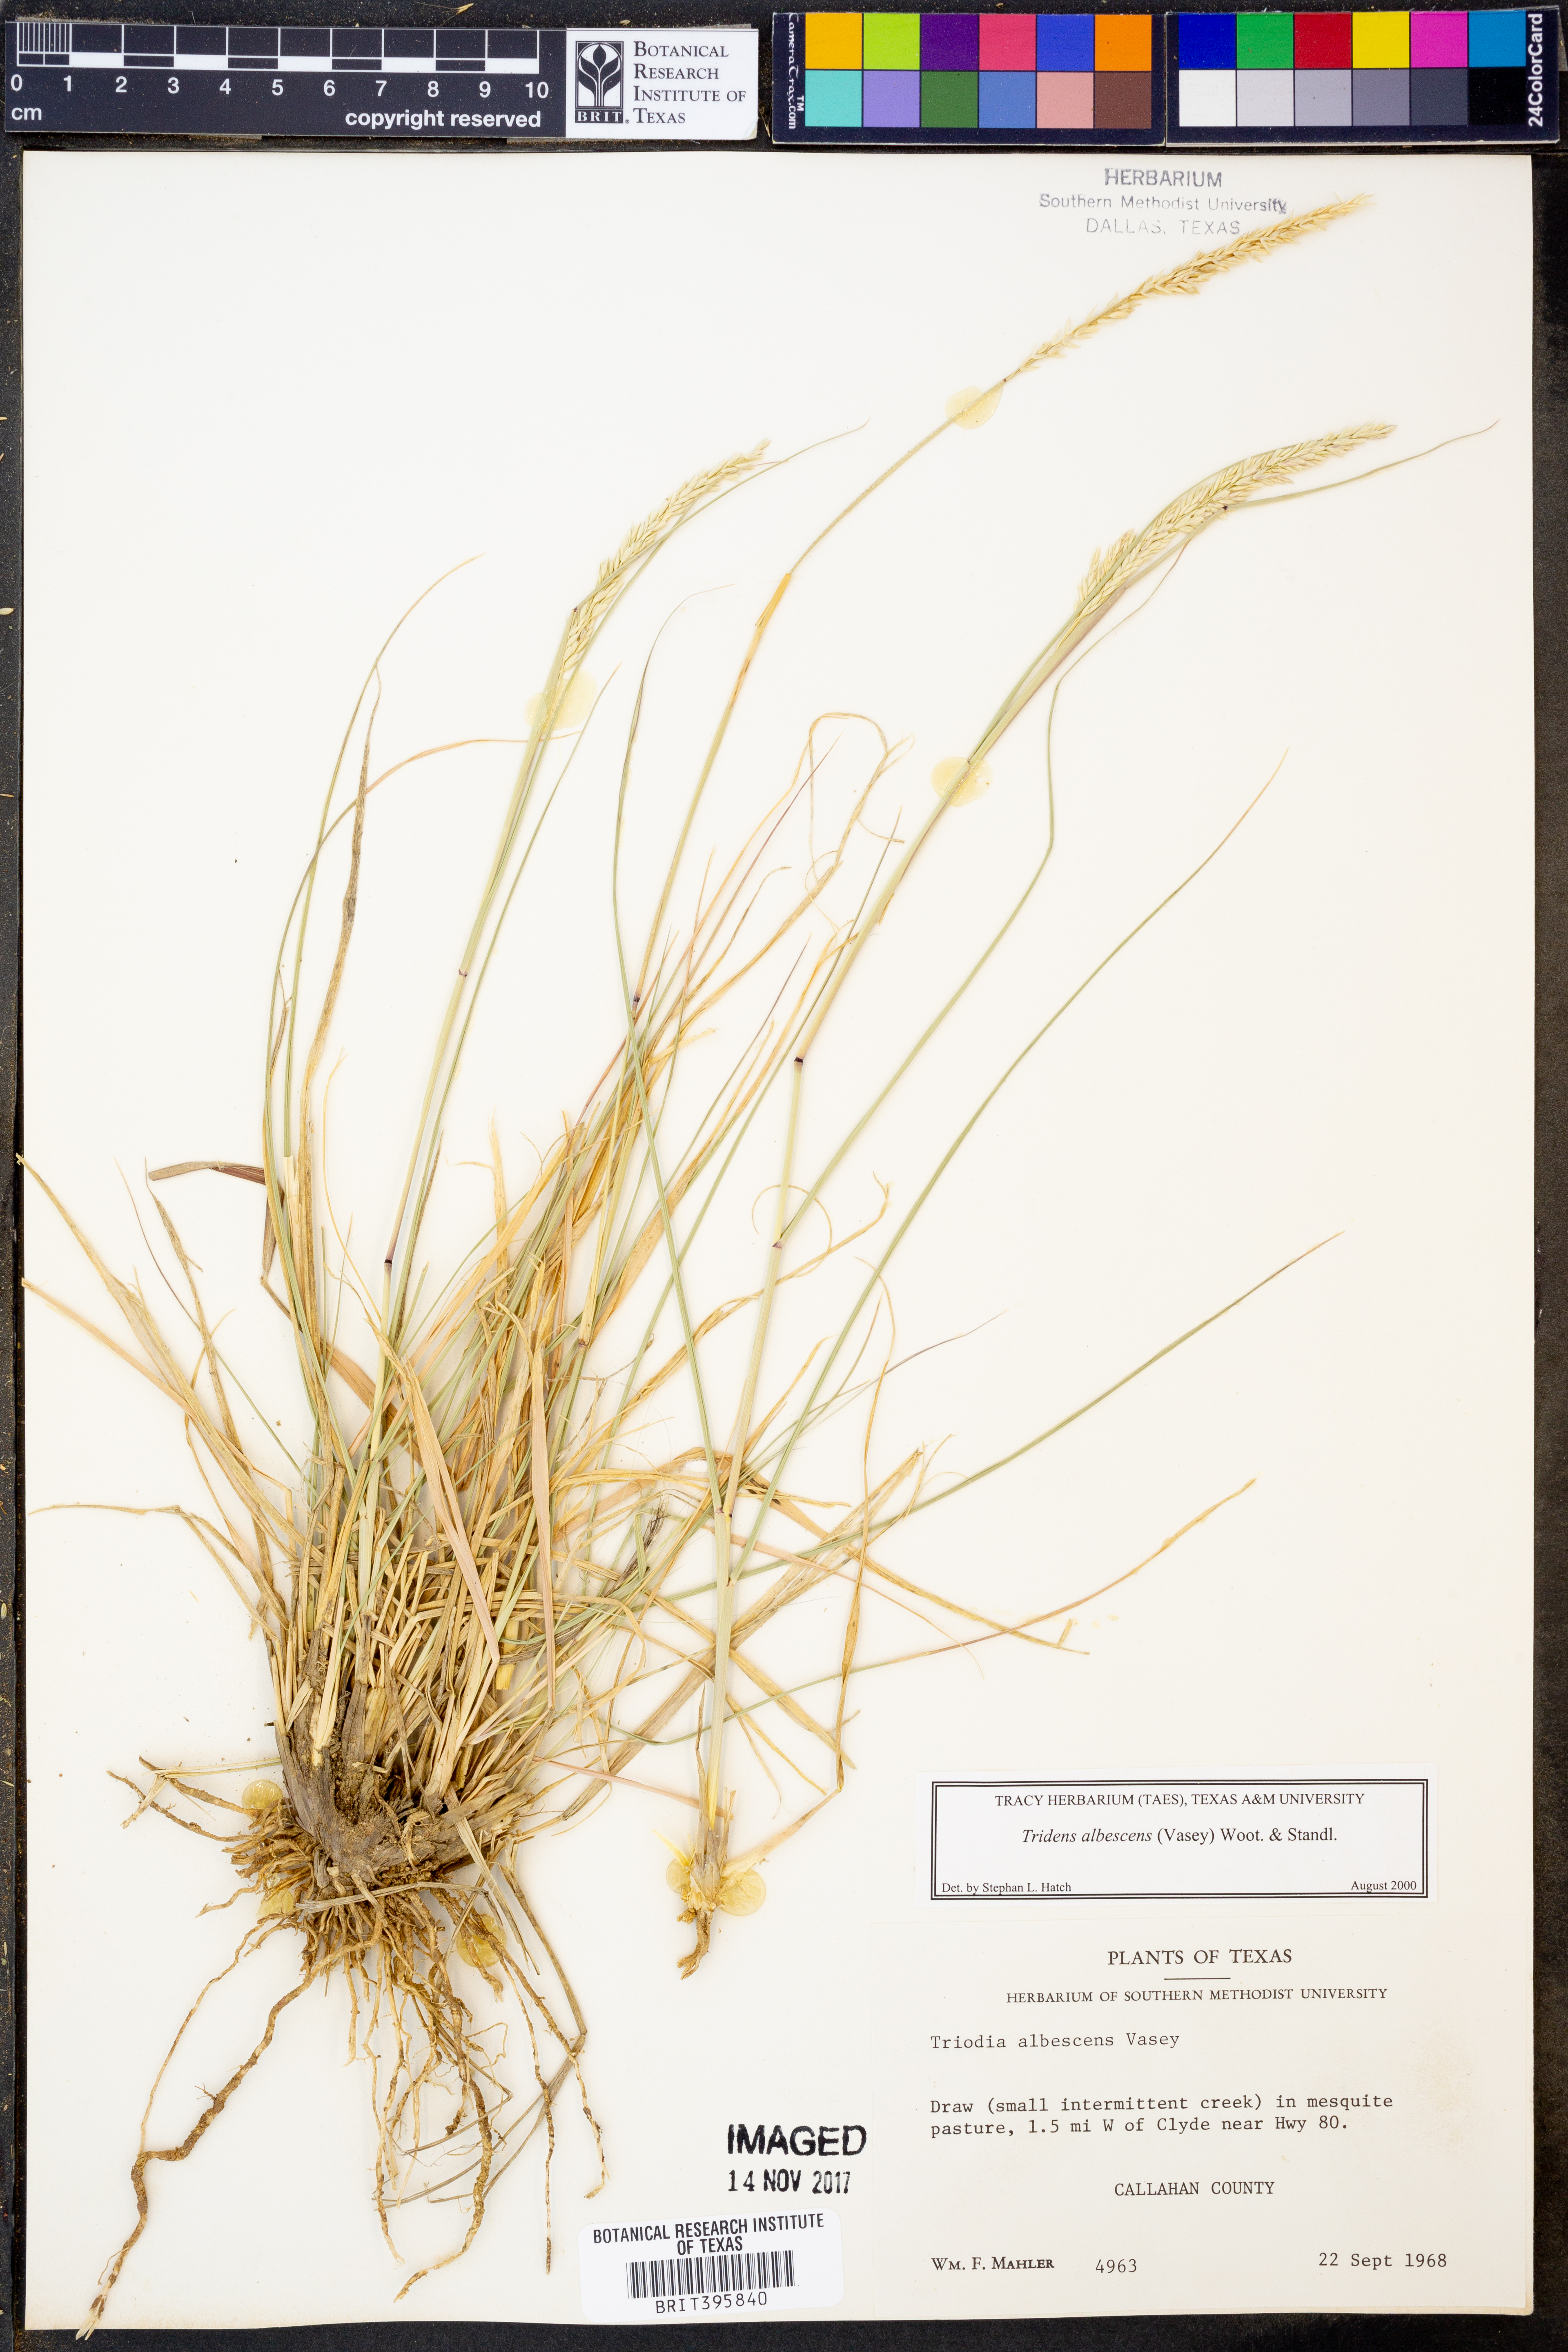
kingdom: Plantae
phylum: Tracheophyta
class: Liliopsida
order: Poales
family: Poaceae
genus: Tridens
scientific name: Tridens albescens
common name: White tridens
